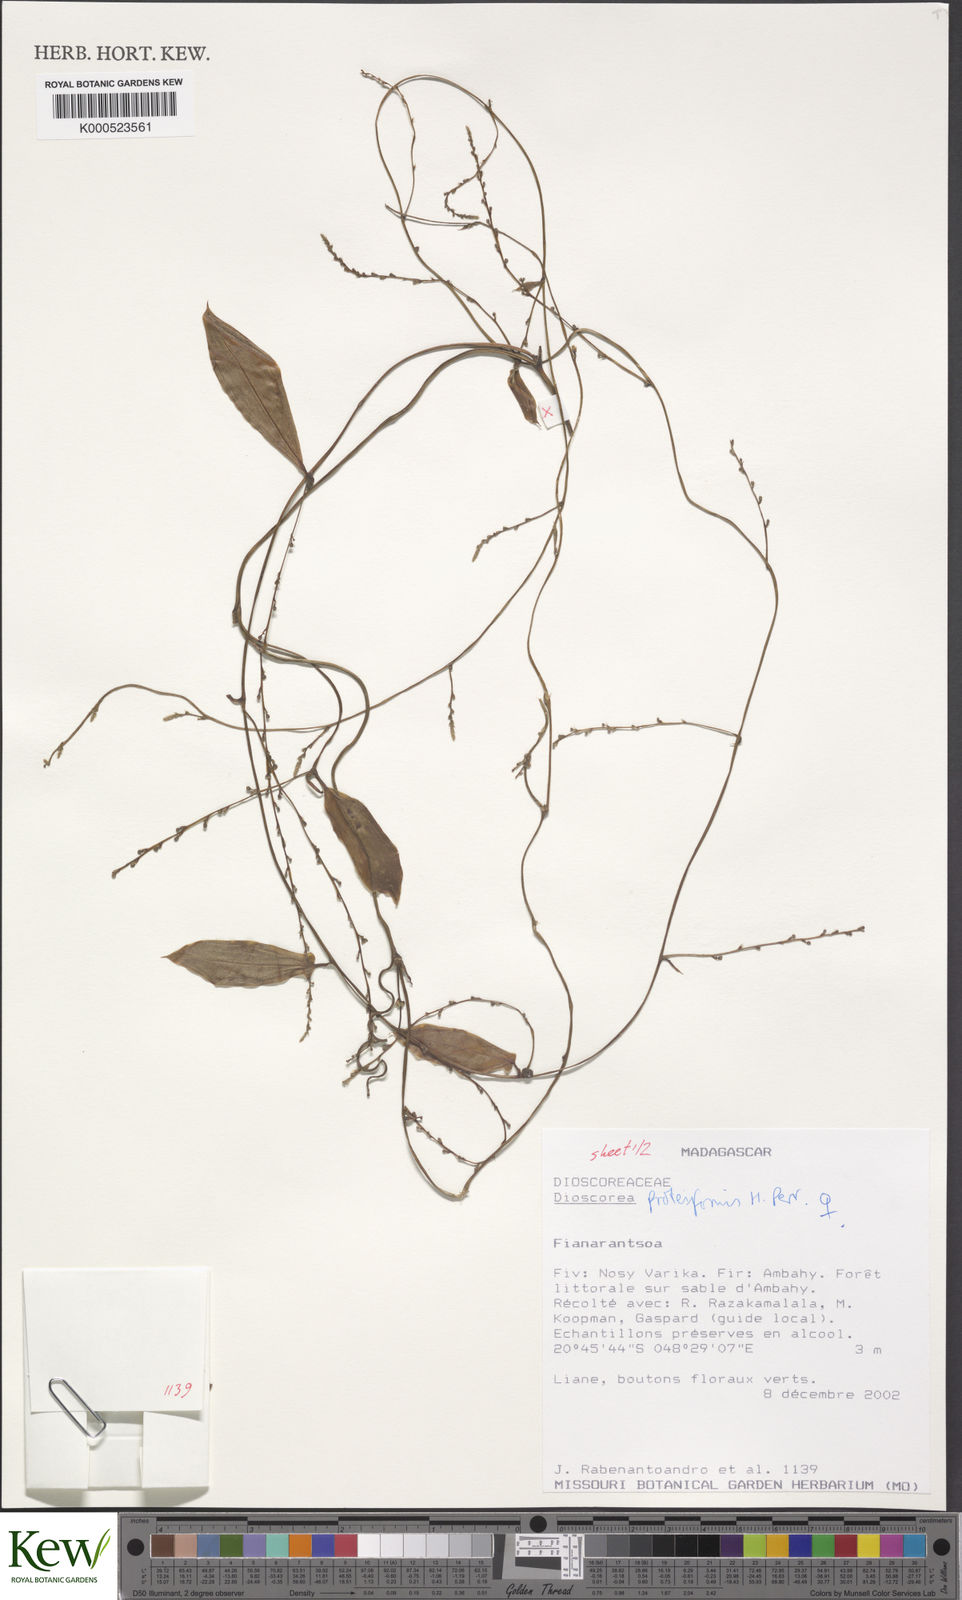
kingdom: Plantae
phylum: Tracheophyta
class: Liliopsida
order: Dioscoreales
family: Dioscoreaceae
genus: Dioscorea
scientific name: Dioscorea proteiformis
